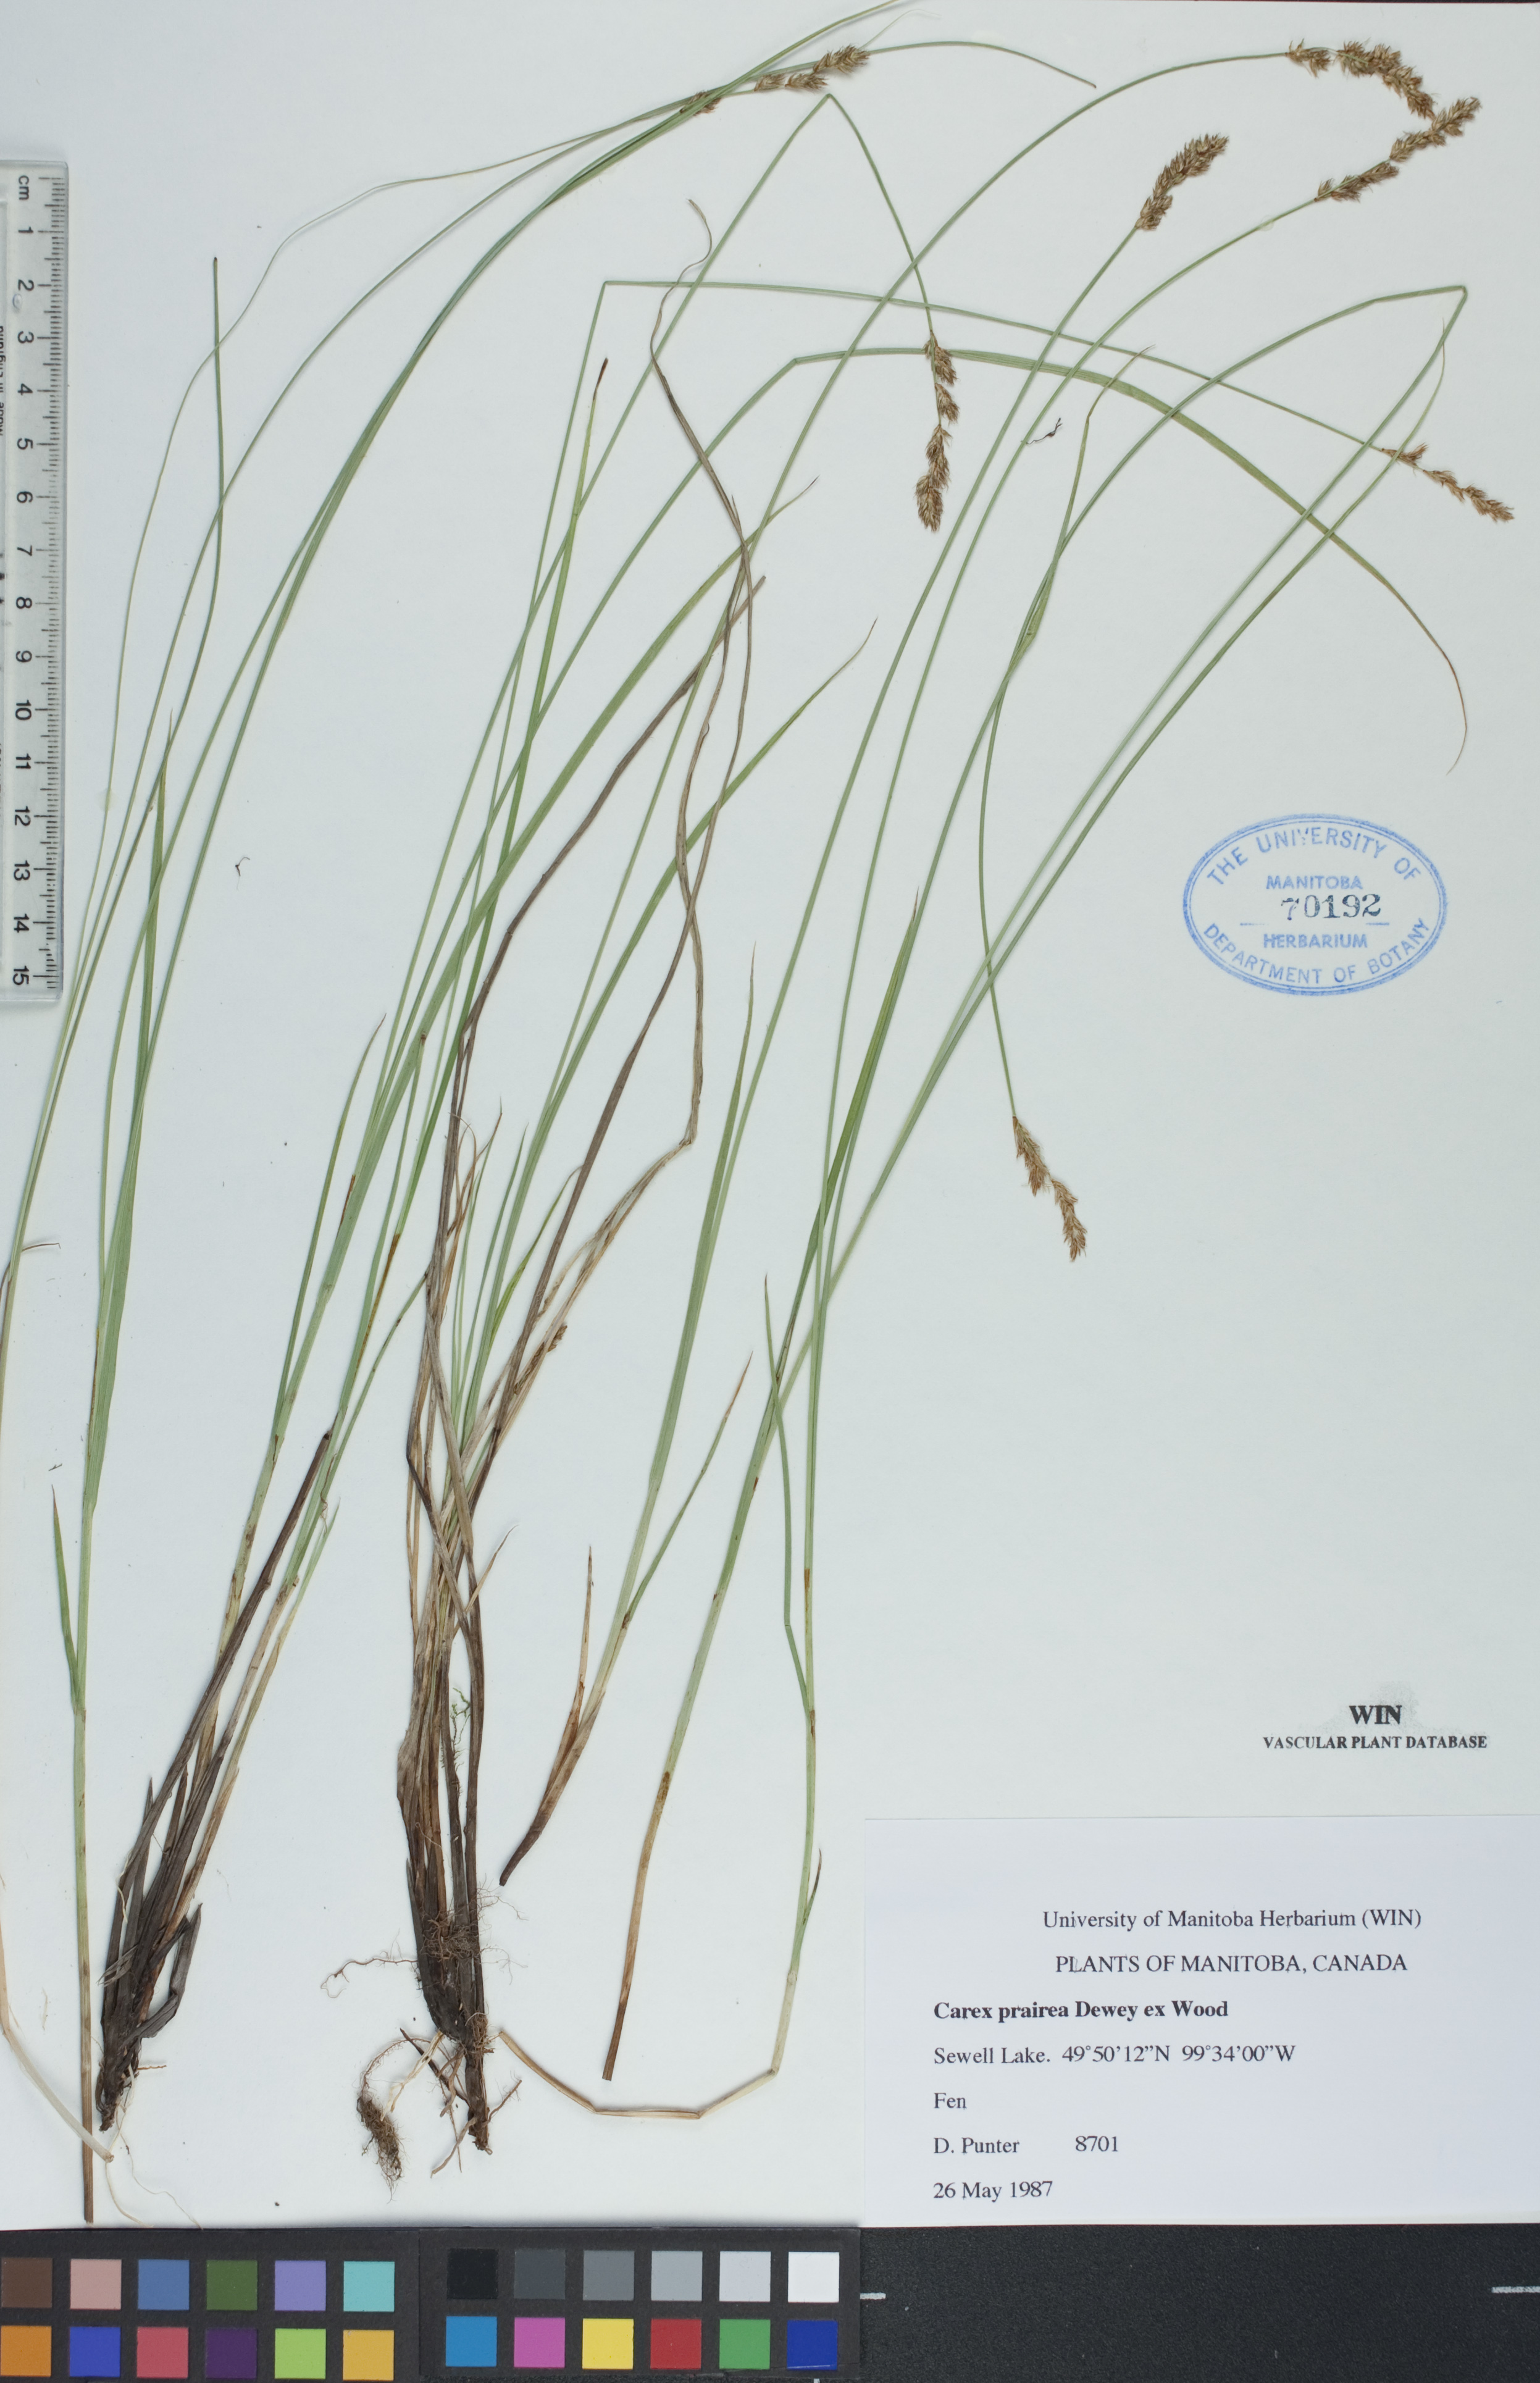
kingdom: Plantae
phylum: Tracheophyta
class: Liliopsida
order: Poales
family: Cyperaceae
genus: Carex
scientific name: Carex prairea
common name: Prairie sedge
